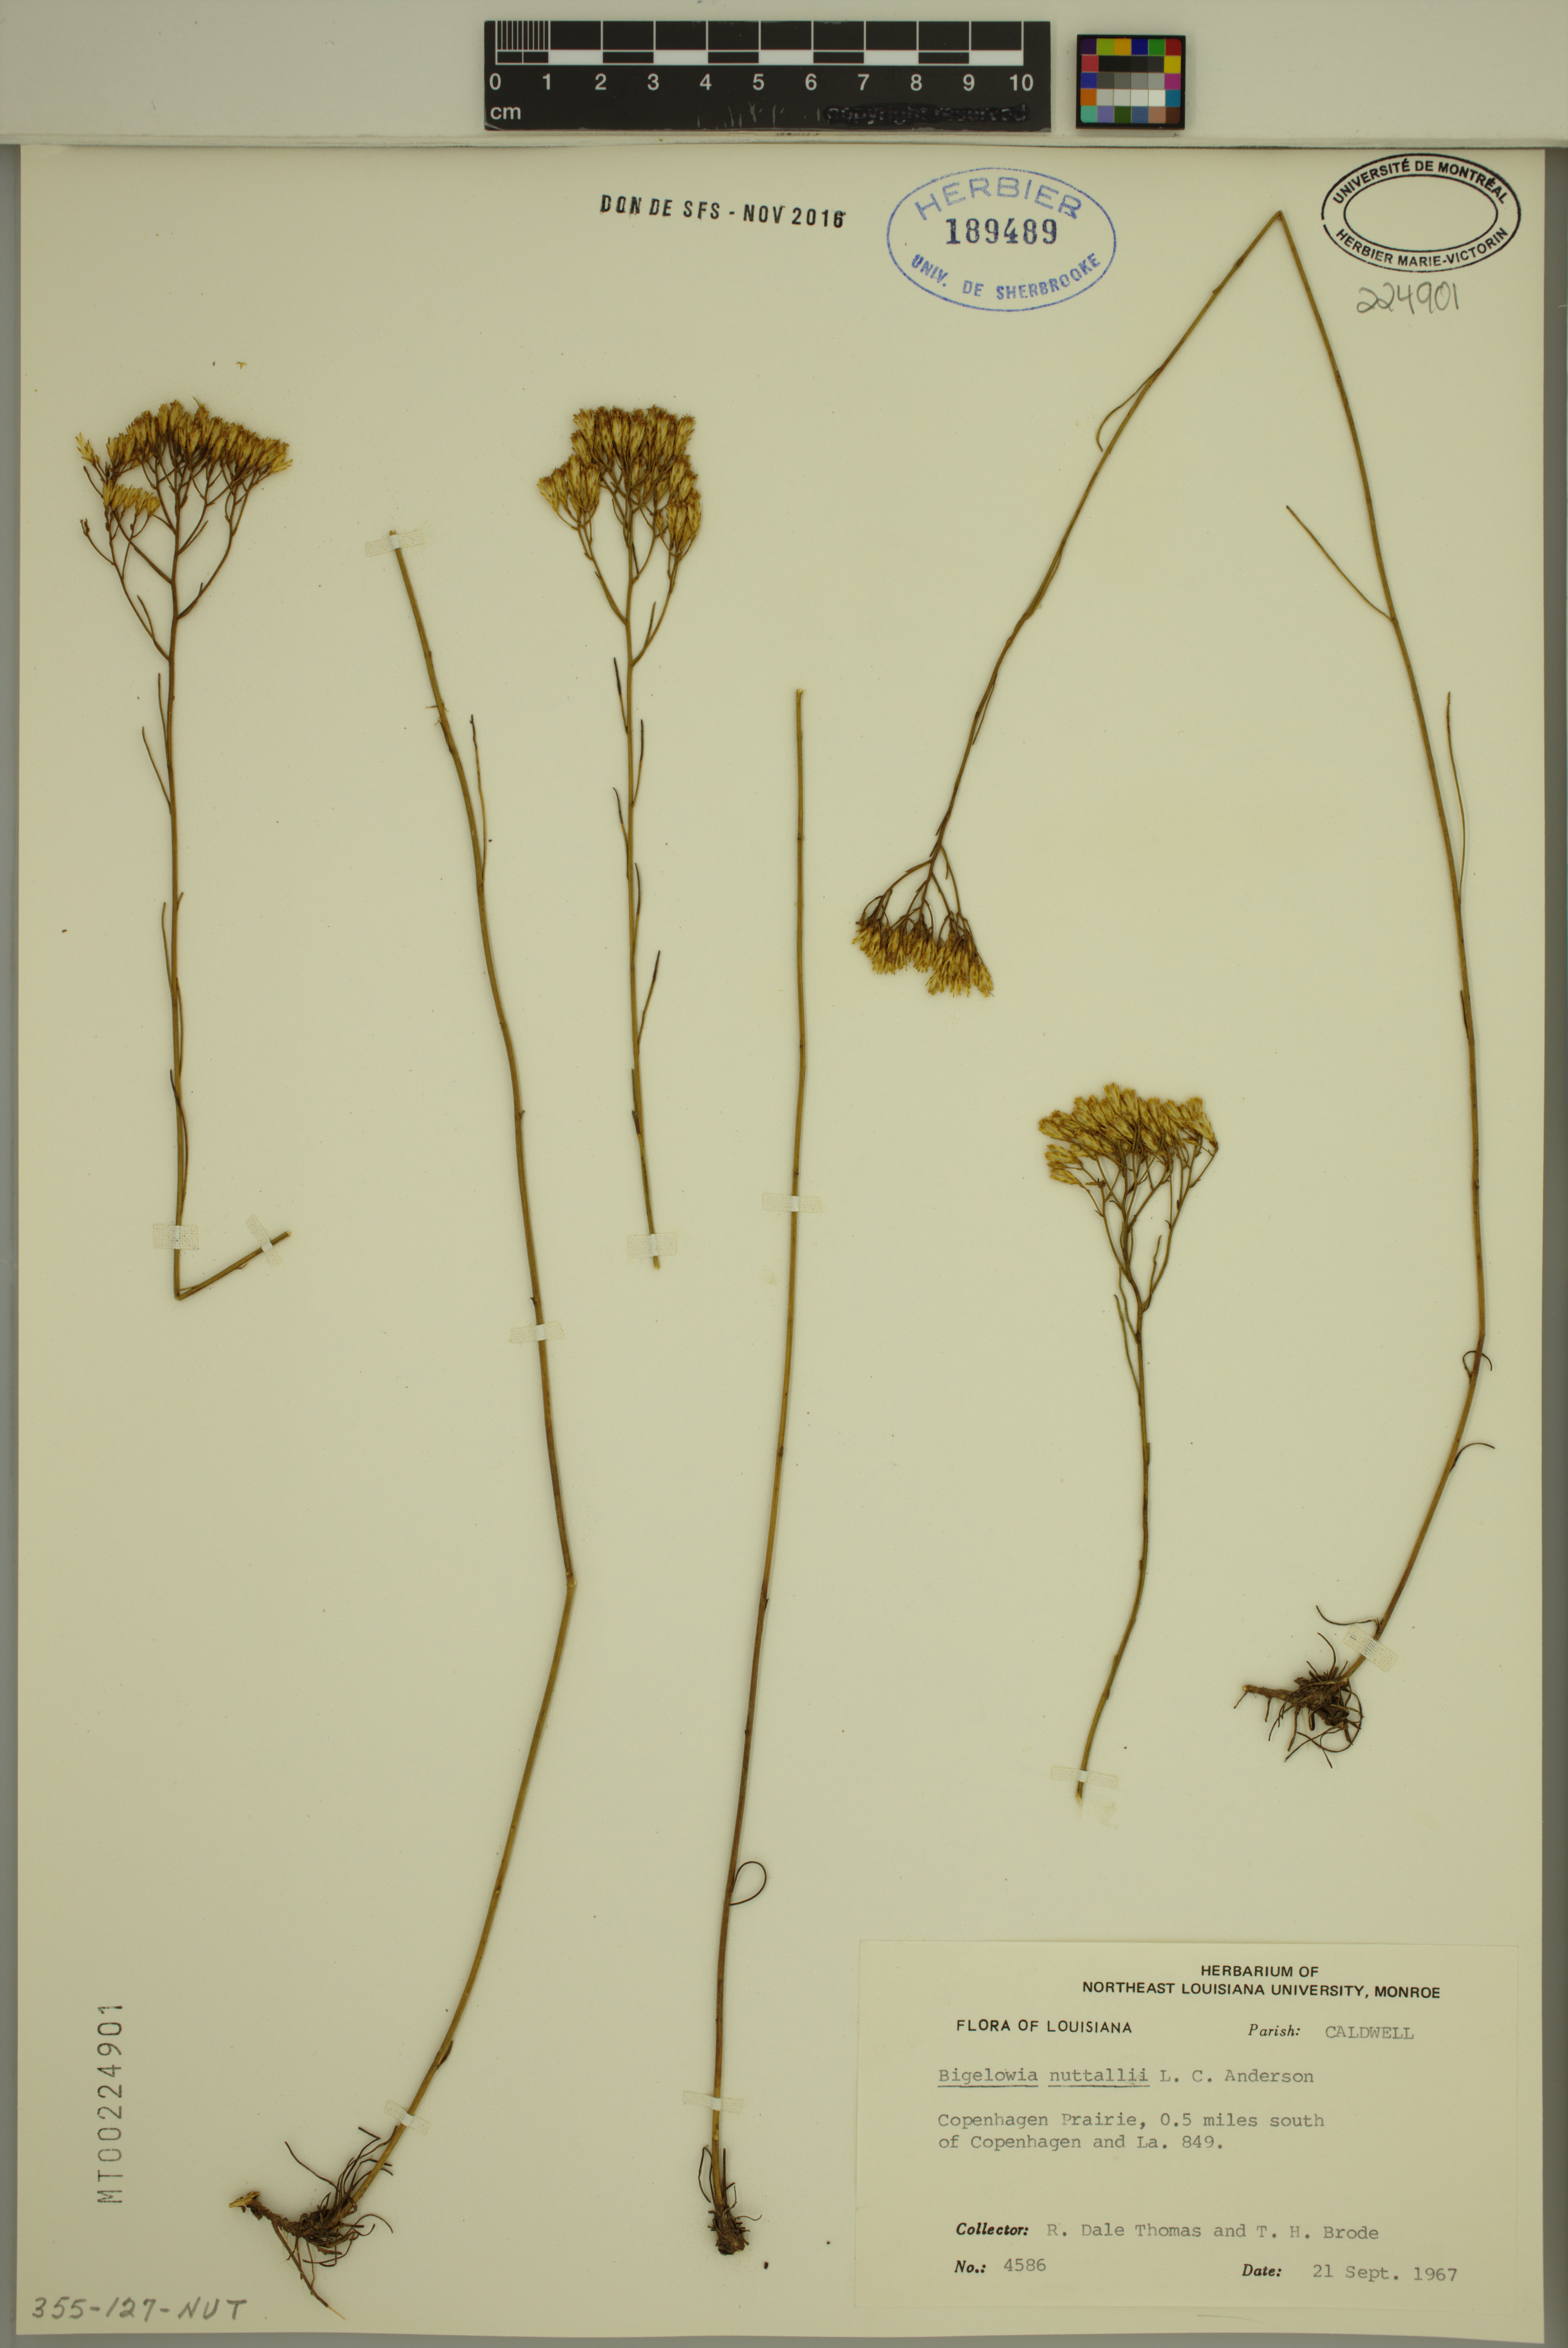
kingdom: Plantae
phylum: Tracheophyta
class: Magnoliopsida
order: Asterales
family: Asteraceae
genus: Bigelowia
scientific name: Bigelowia nuttallii
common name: Nuttall's rayless-goldenrod
